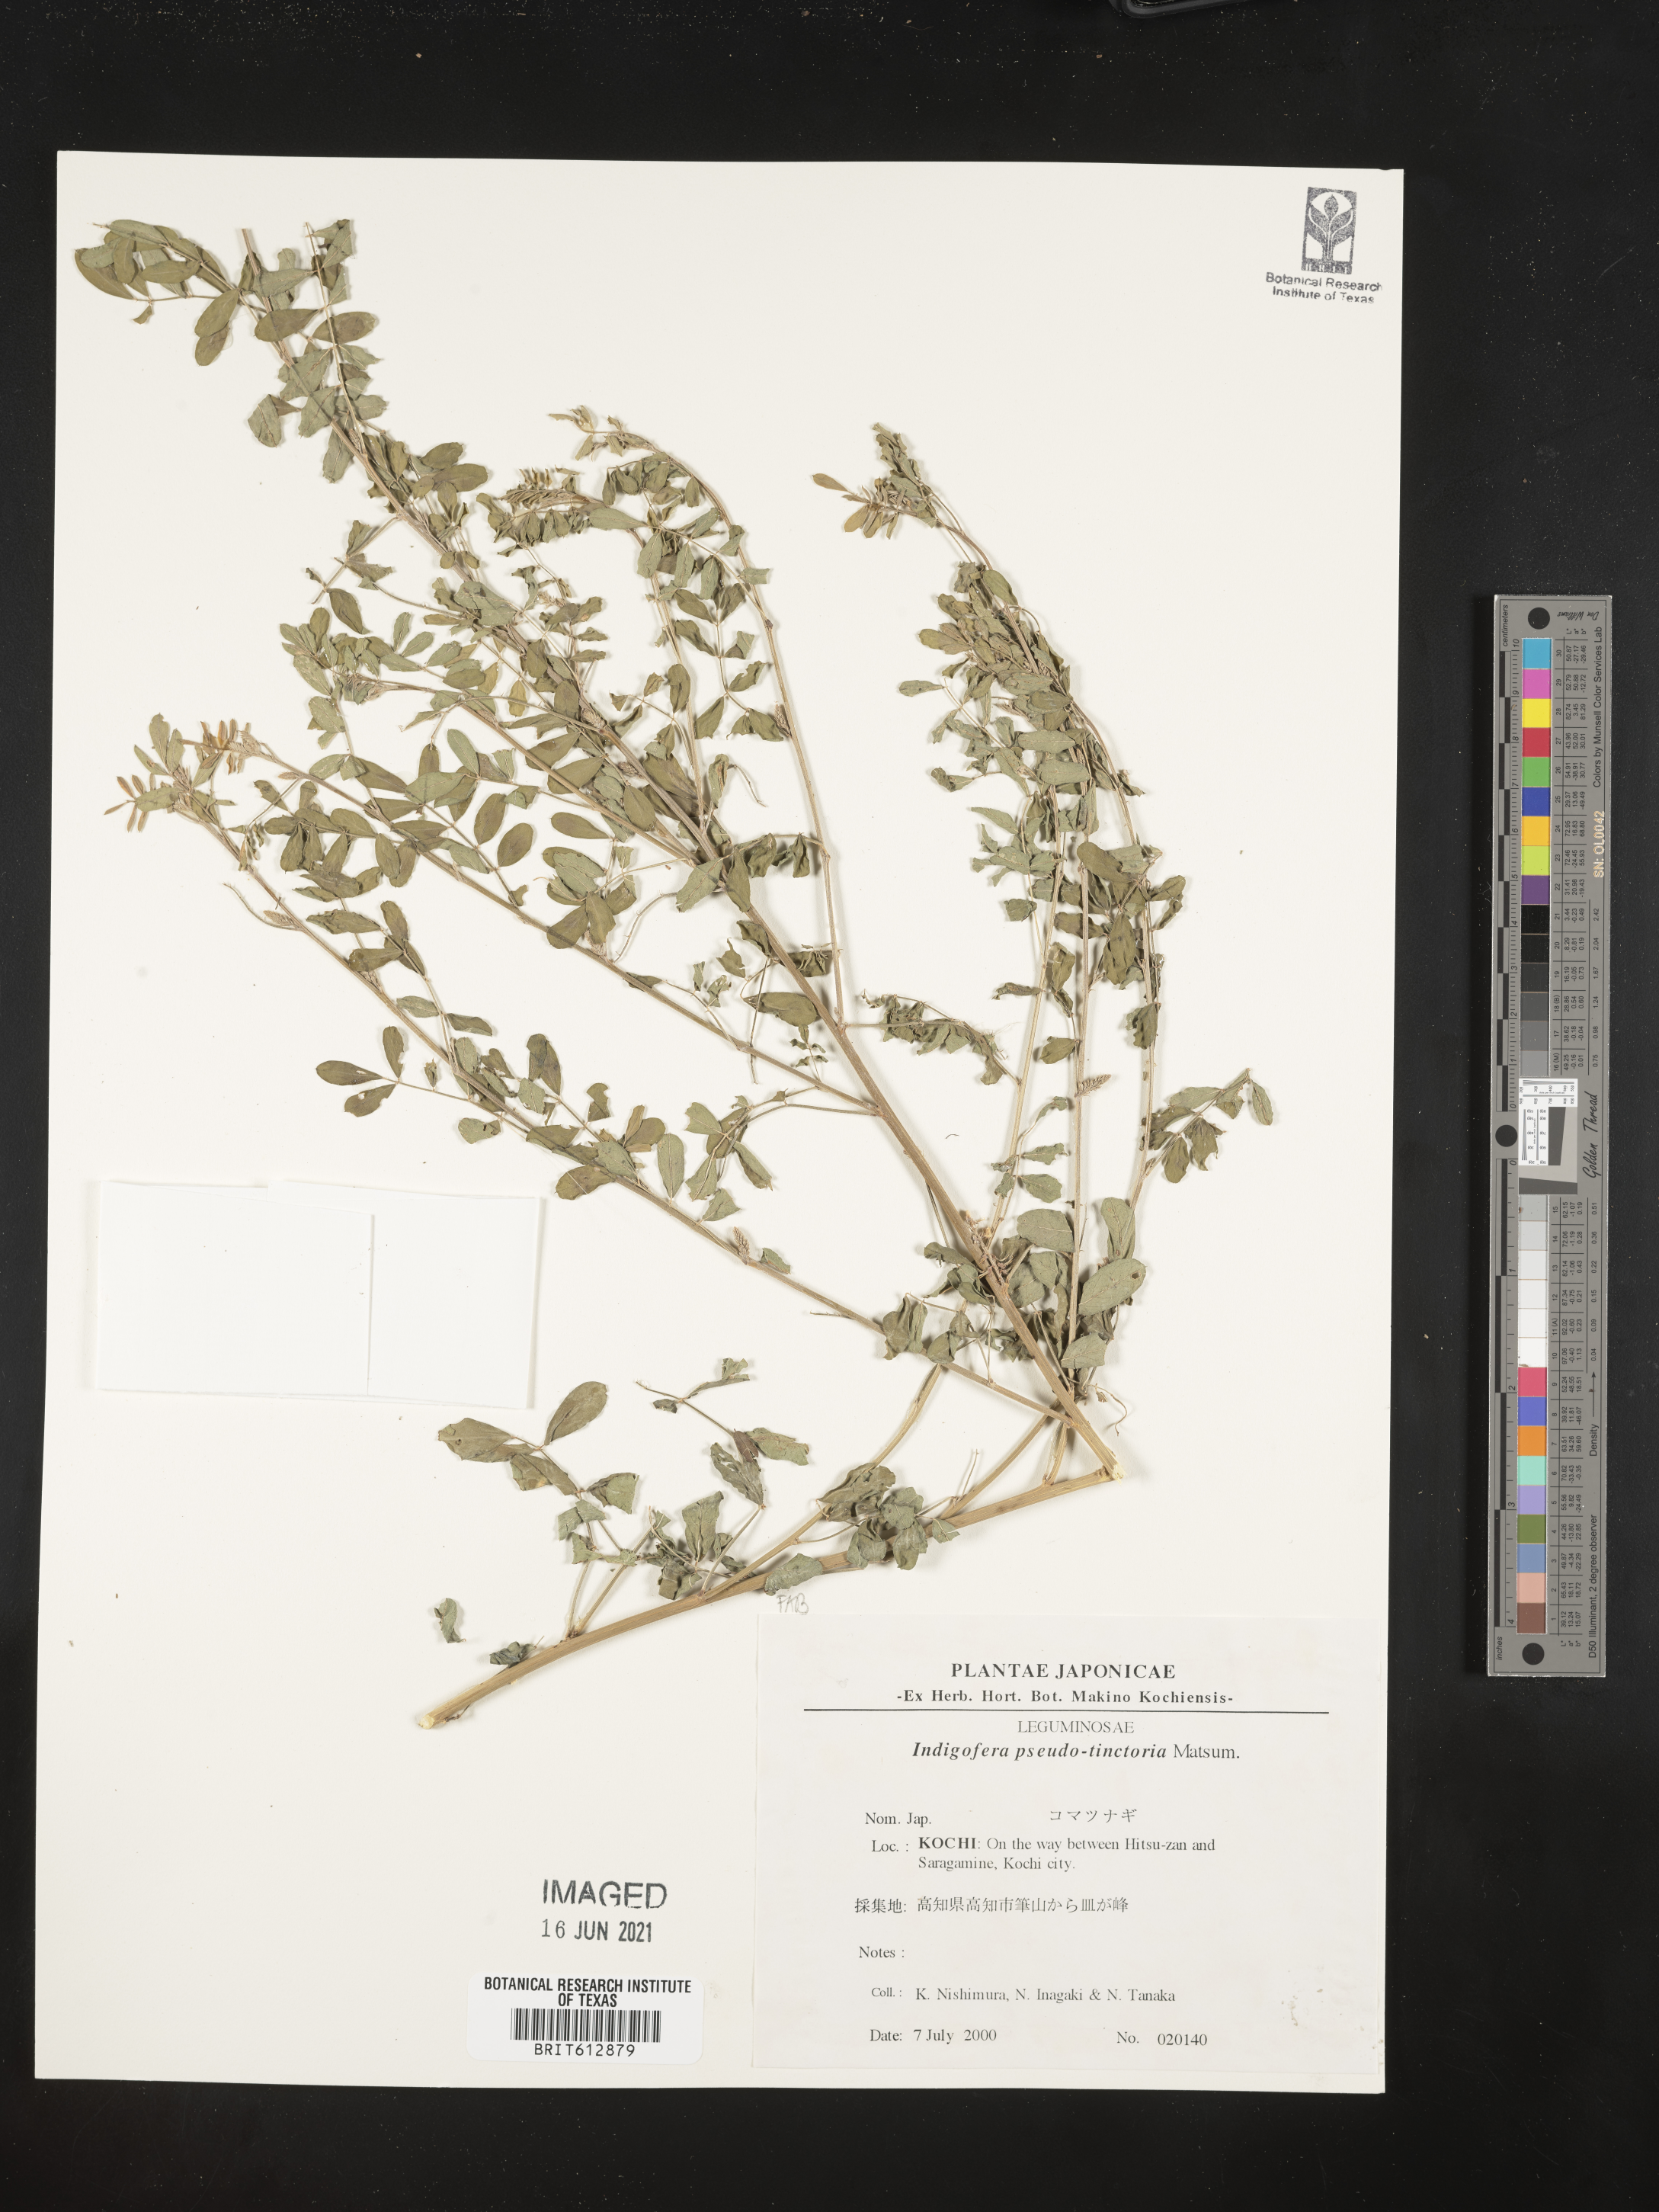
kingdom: Plantae
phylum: Tracheophyta
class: Magnoliopsida
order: Fabales
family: Fabaceae
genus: Indigofera
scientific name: Indigofera bungeana
